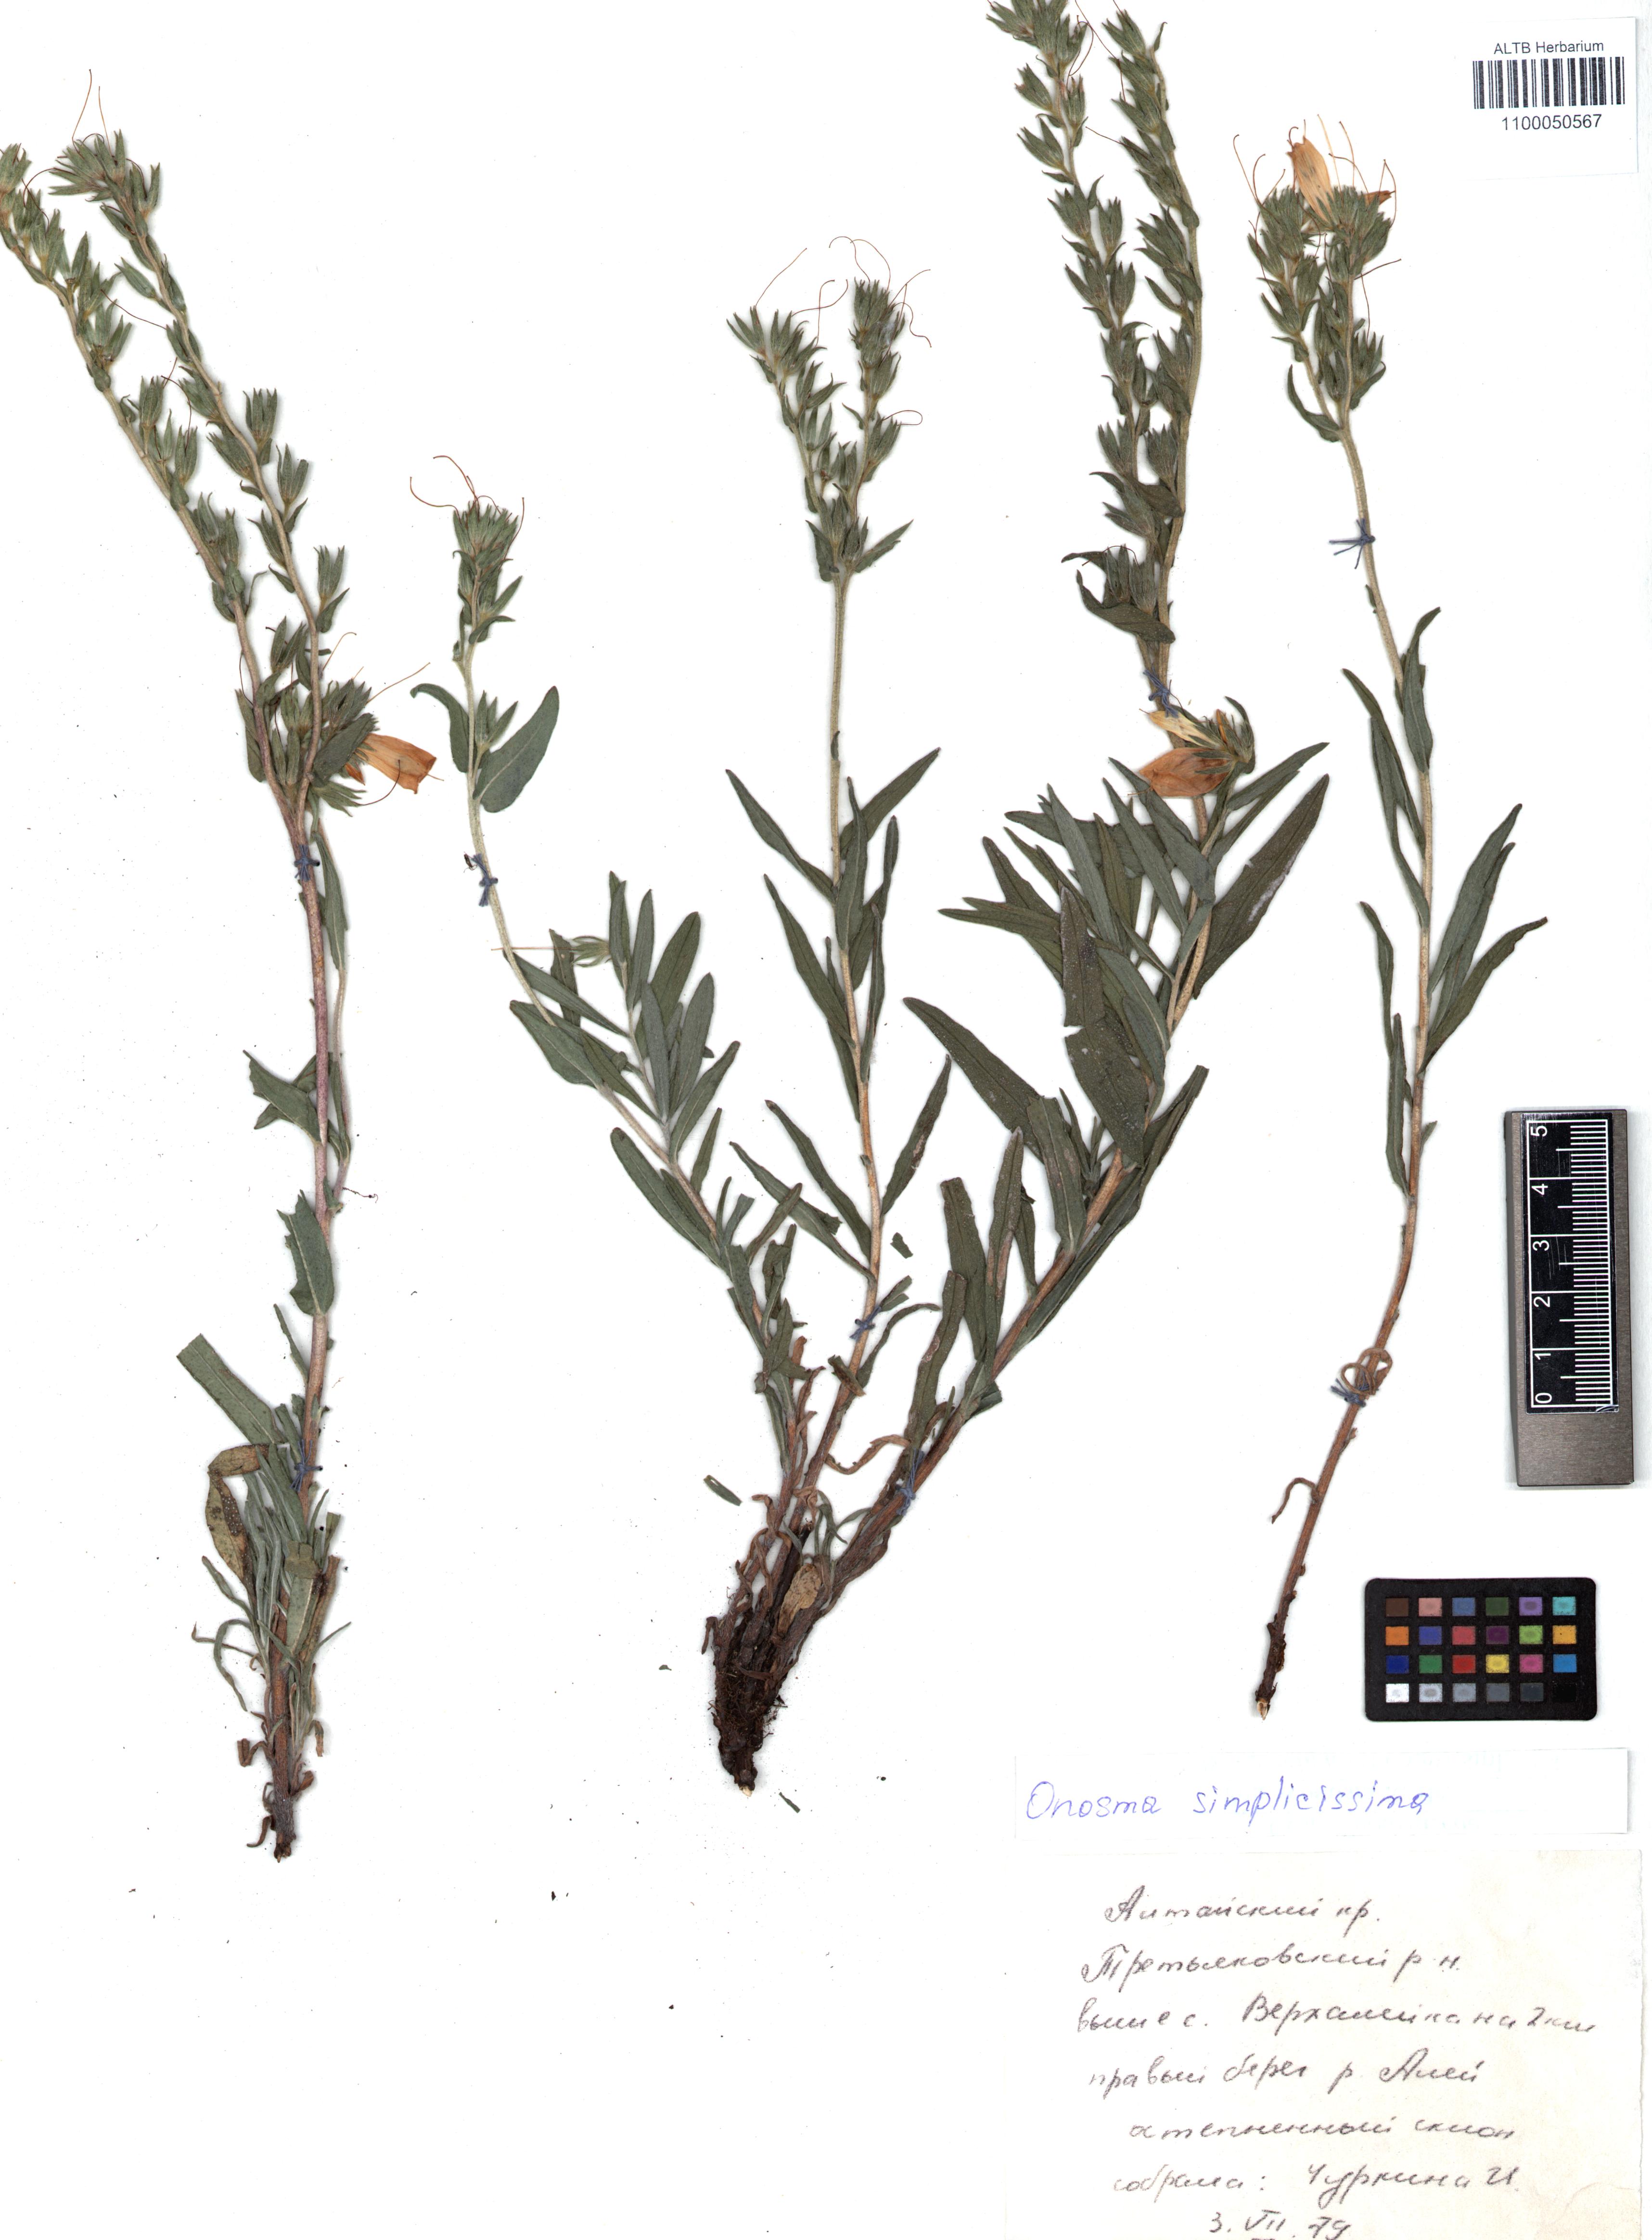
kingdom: Plantae
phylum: Tracheophyta
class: Magnoliopsida
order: Boraginales
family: Boraginaceae
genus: Onosma
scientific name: Onosma simplicissima
